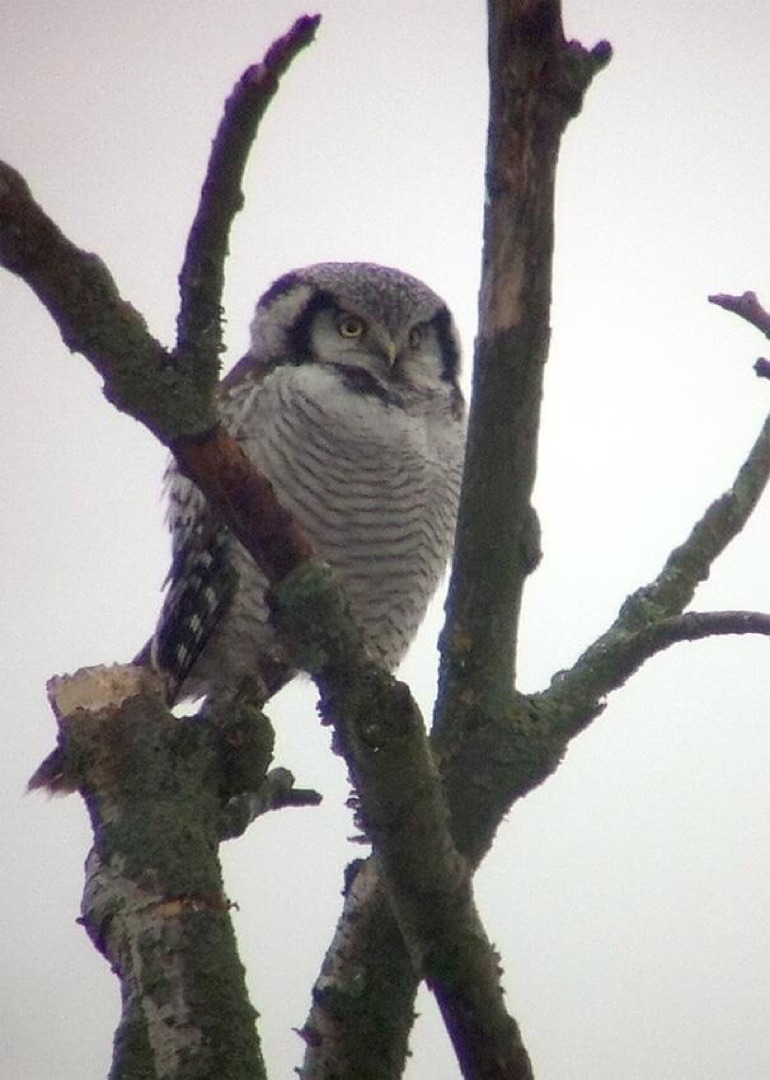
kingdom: Animalia
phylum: Chordata
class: Aves
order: Strigiformes
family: Strigidae
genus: Surnia
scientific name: Surnia ulula
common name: Høgeugle
